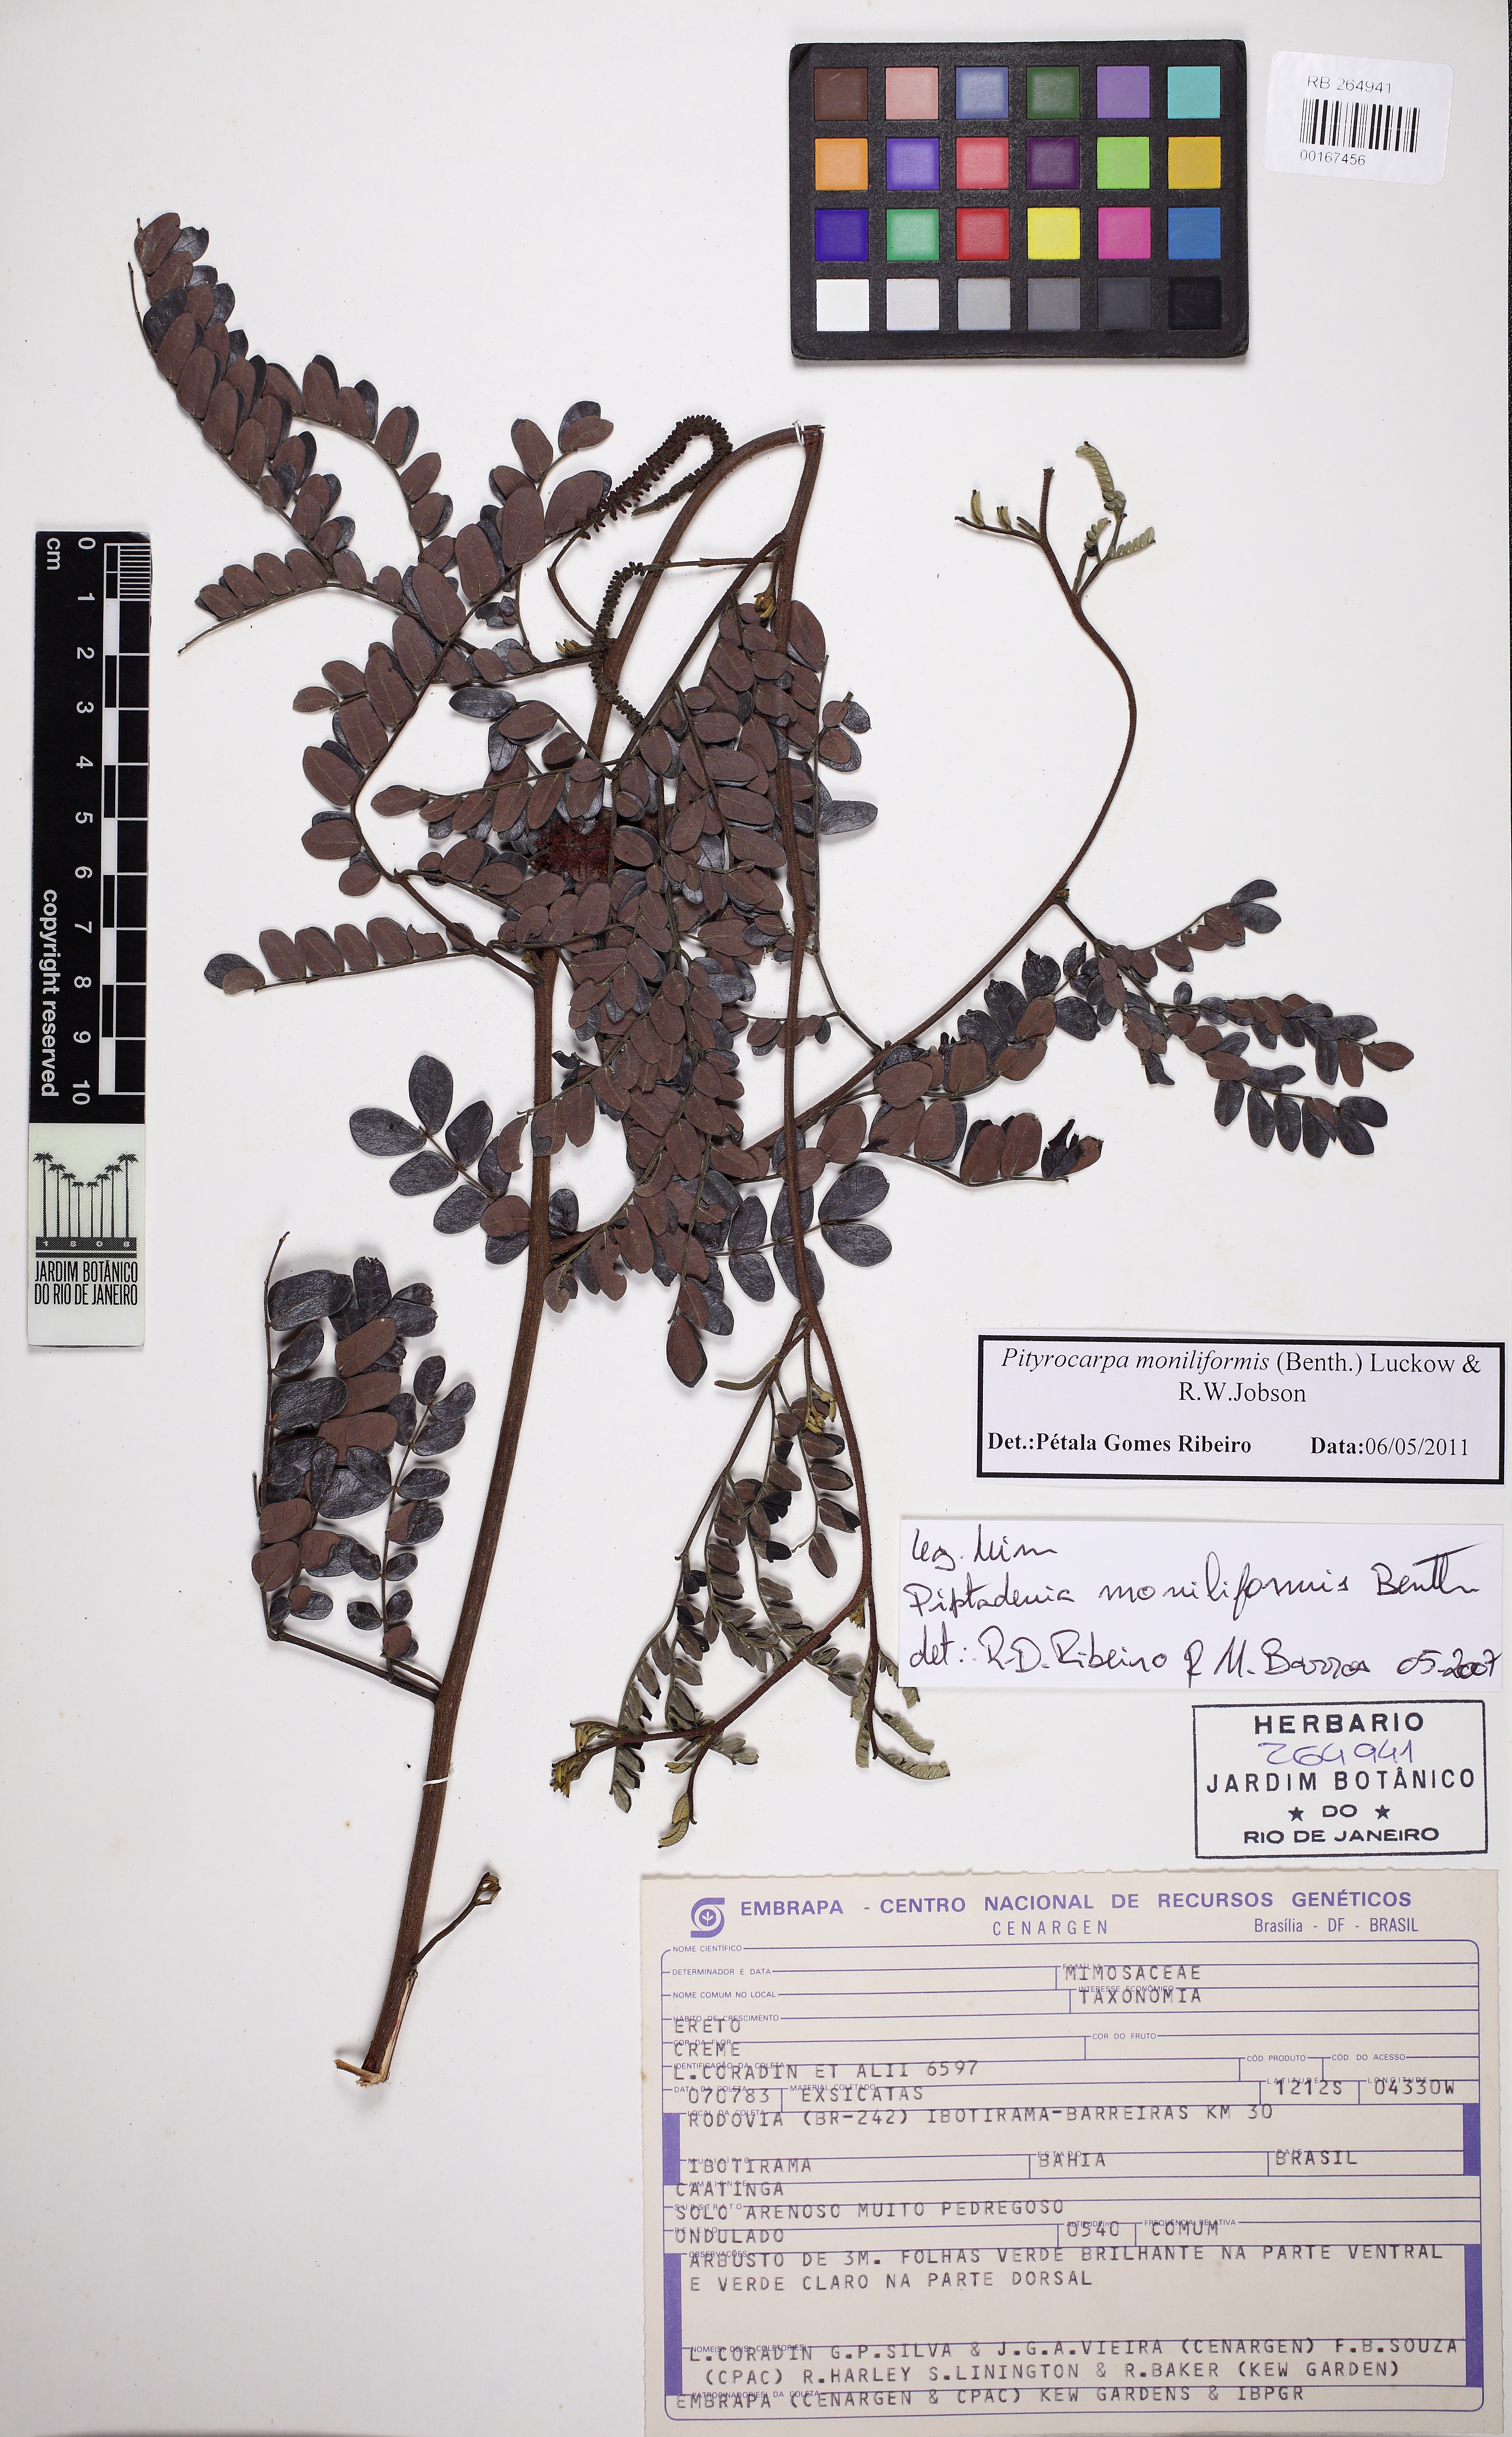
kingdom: Plantae
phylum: Tracheophyta
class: Magnoliopsida
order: Fabales
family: Fabaceae
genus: Pityrocarpa
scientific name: Pityrocarpa moniliformis
